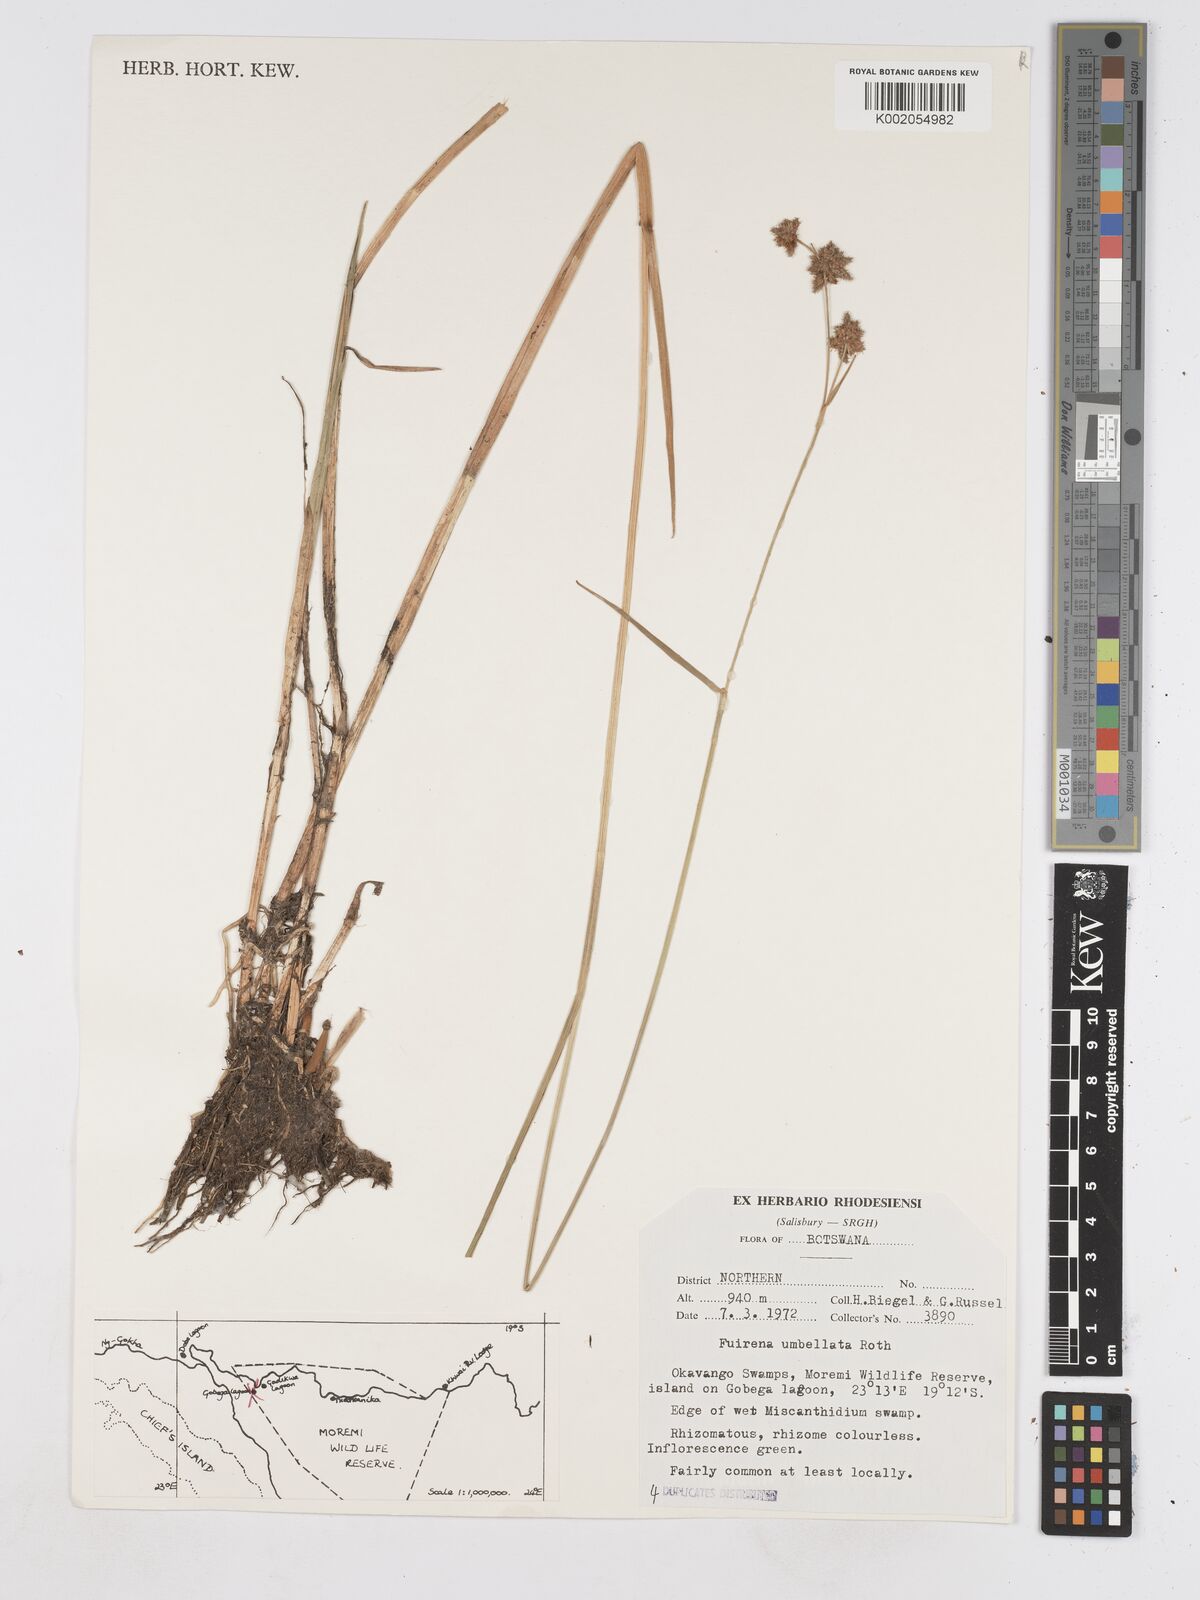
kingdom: Plantae
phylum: Tracheophyta
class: Liliopsida
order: Poales
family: Cyperaceae
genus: Fuirena
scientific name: Fuirena umbellata
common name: Yefen
